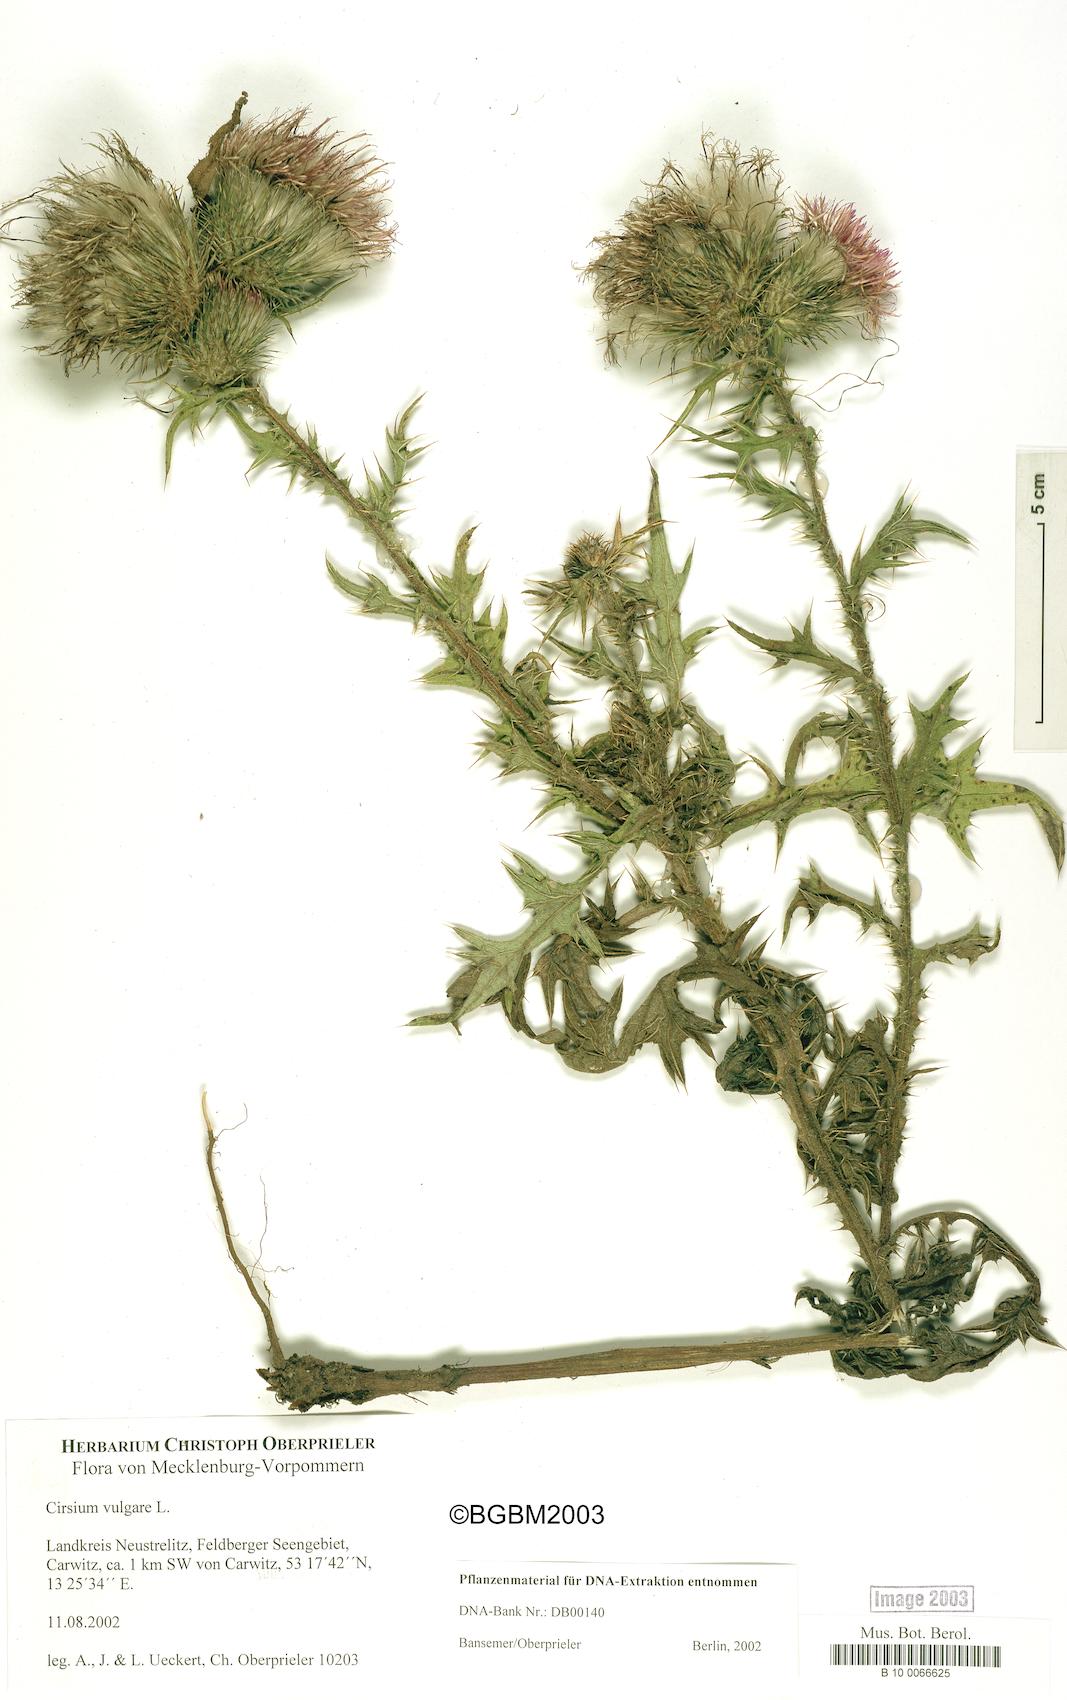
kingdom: Plantae
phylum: Tracheophyta
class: Magnoliopsida
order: Asterales
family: Asteraceae
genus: Cirsium
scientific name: Cirsium vulgare
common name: Bull thistle
